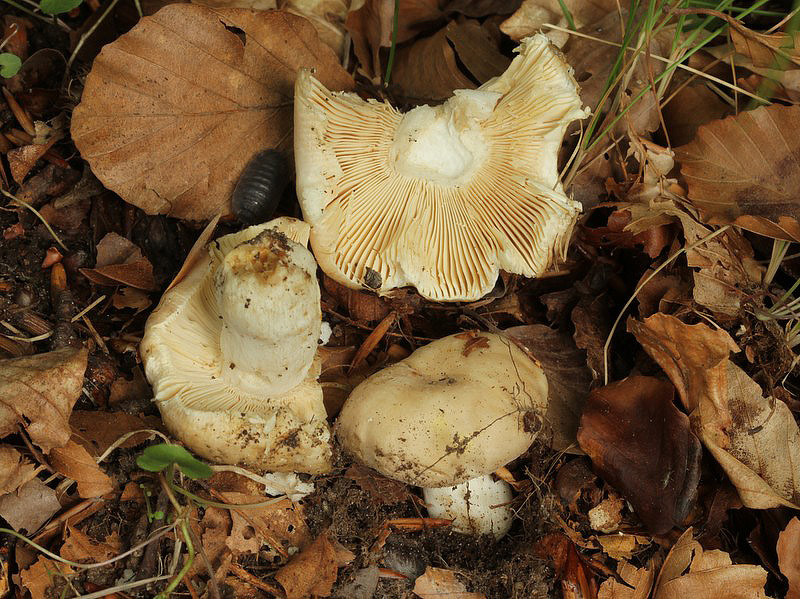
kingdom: Fungi
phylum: Basidiomycota
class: Agaricomycetes
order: Russulales
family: Russulaceae
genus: Russula
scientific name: Russula fellea
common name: galde-skørhat
